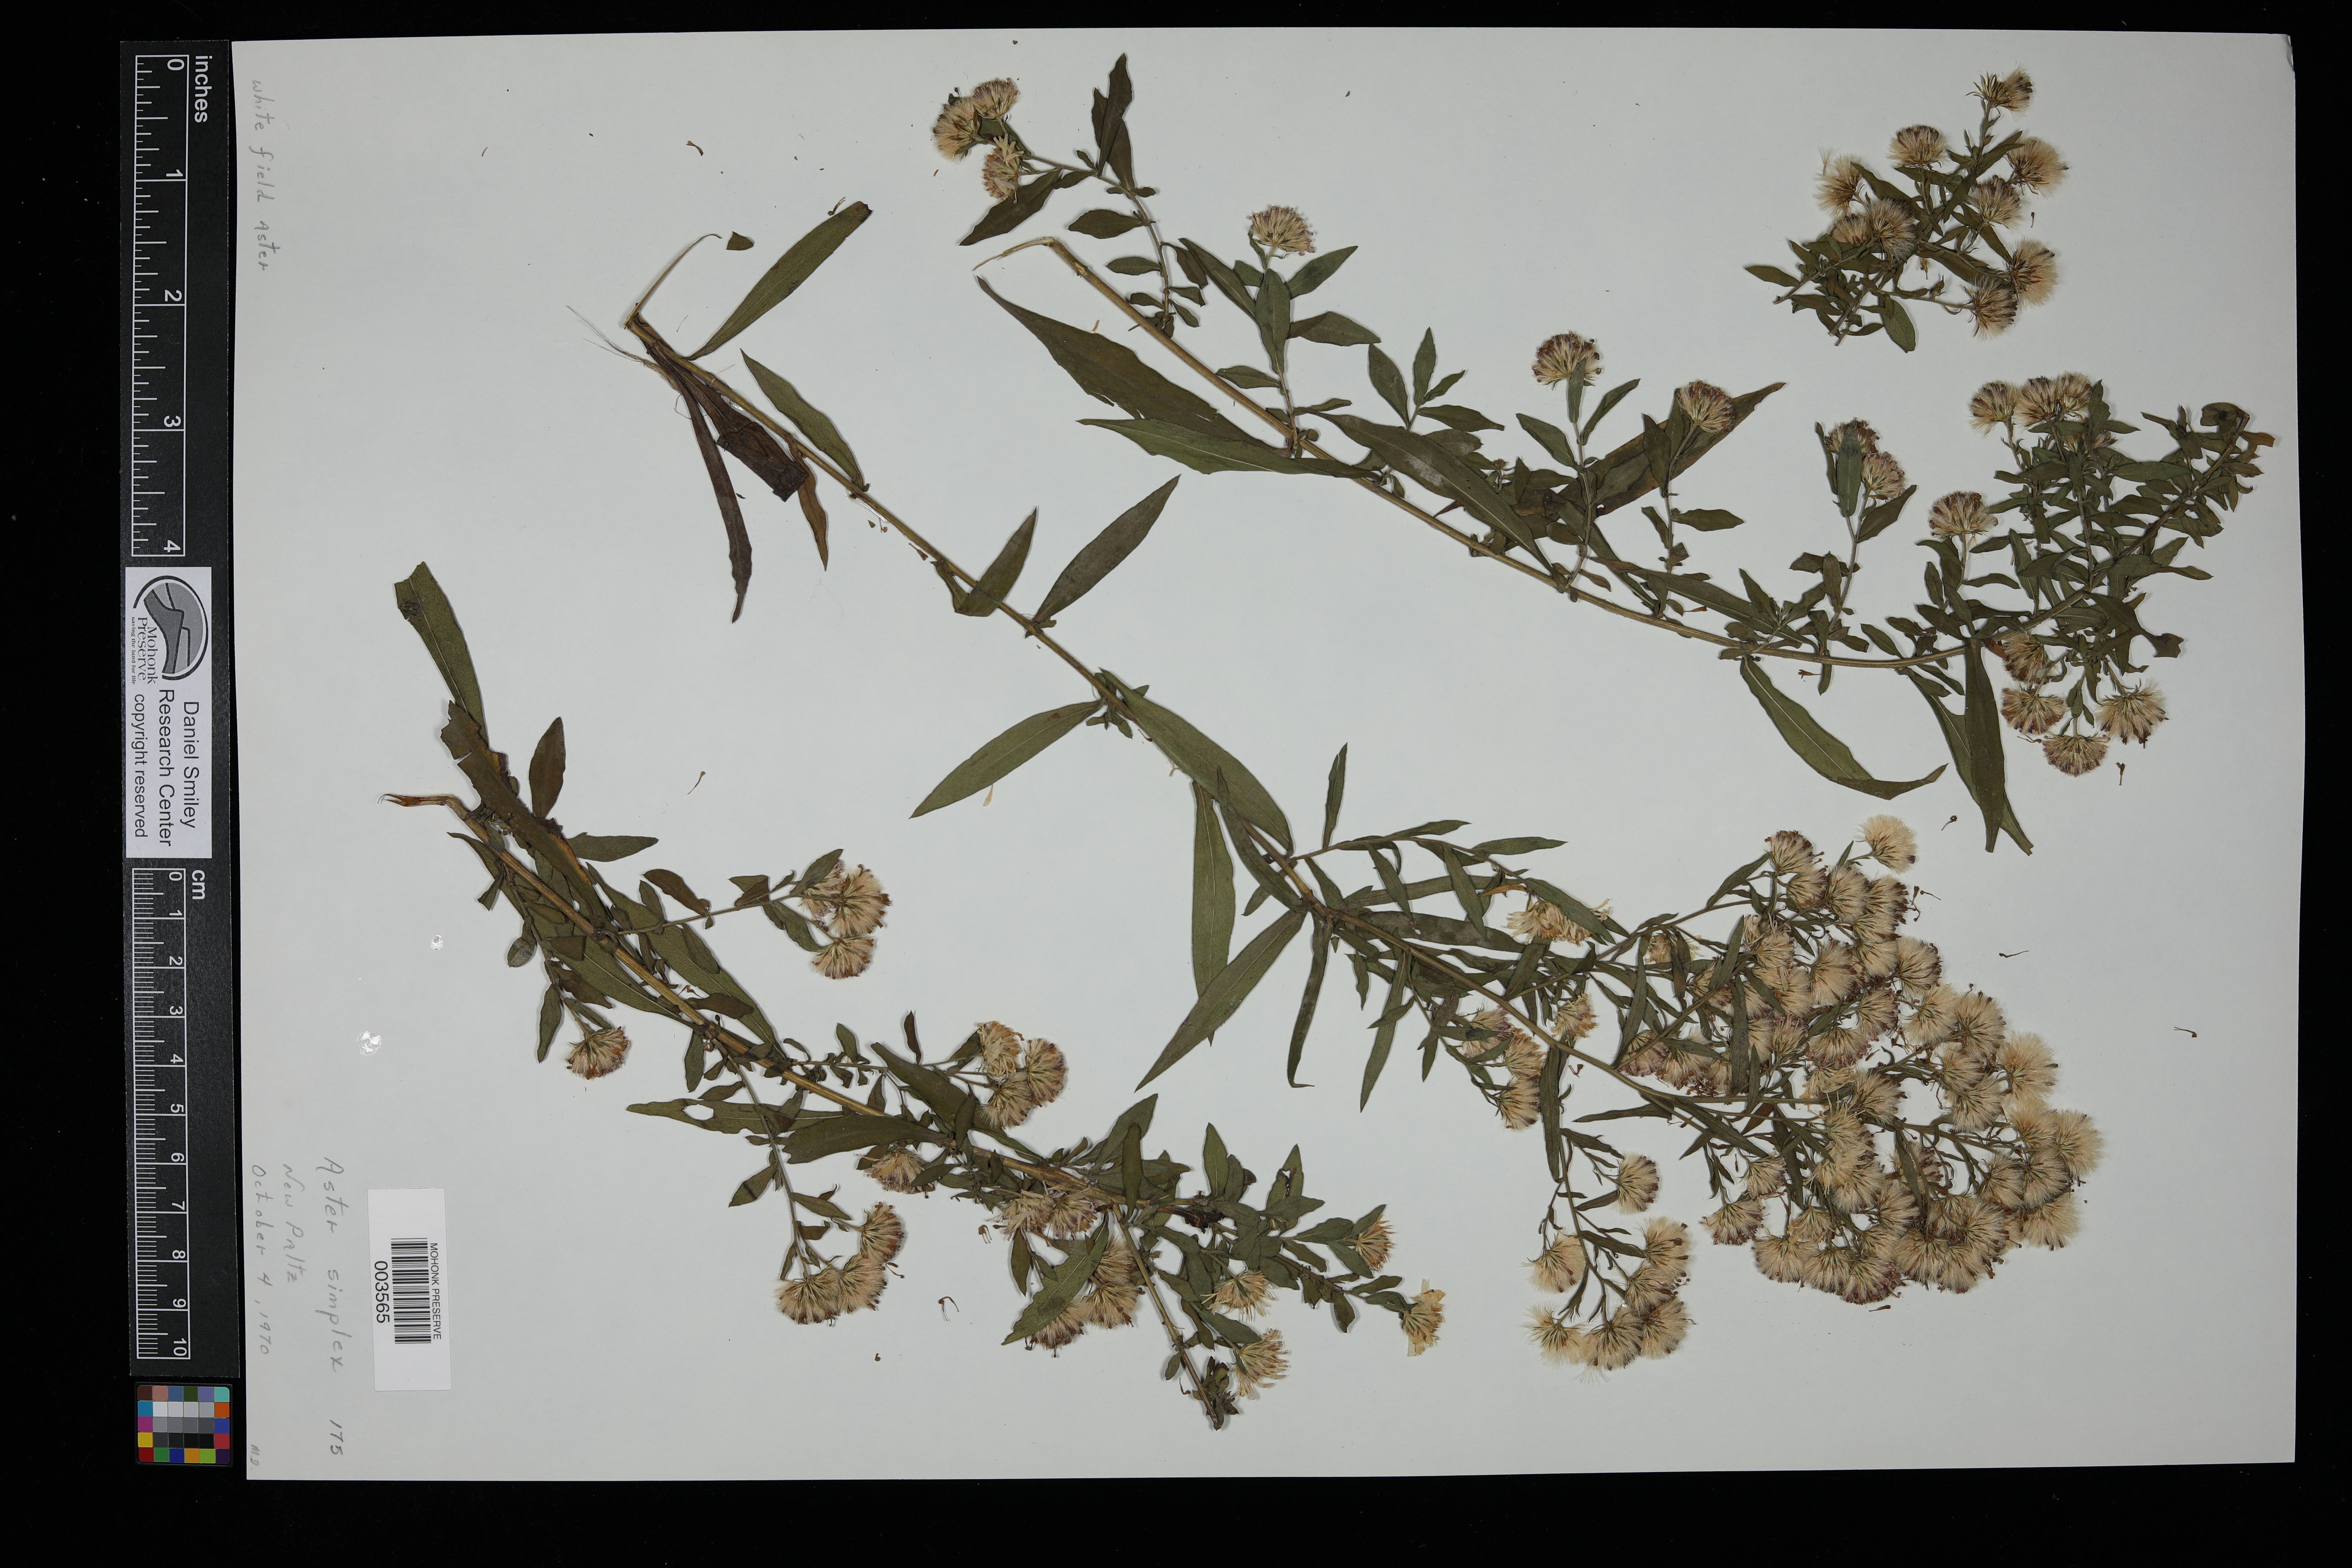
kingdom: Plantae
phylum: Tracheophyta
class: Magnoliopsida
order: Asterales
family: Asteraceae
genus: Symphyotrichum
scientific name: Symphyotrichum lanceolatum
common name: Panicled aster
